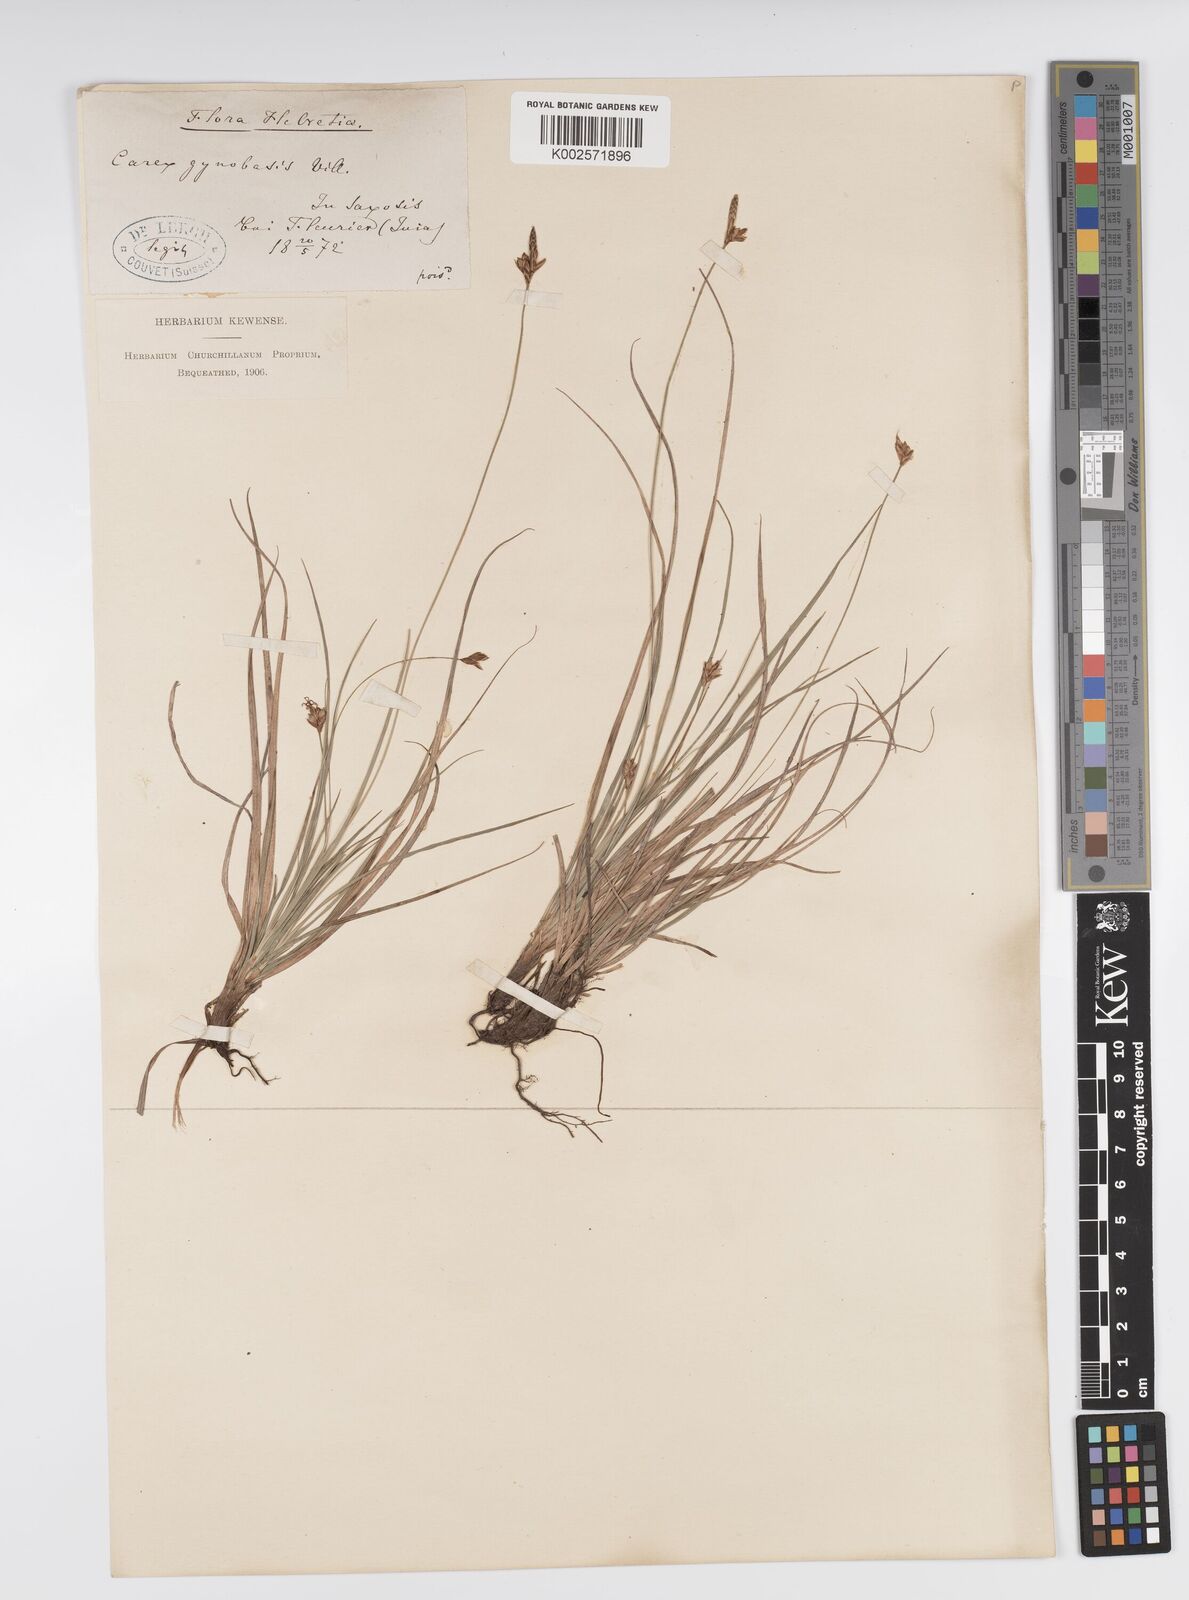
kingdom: Plantae
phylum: Tracheophyta
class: Liliopsida
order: Poales
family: Cyperaceae
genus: Carex
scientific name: Carex halleriana
